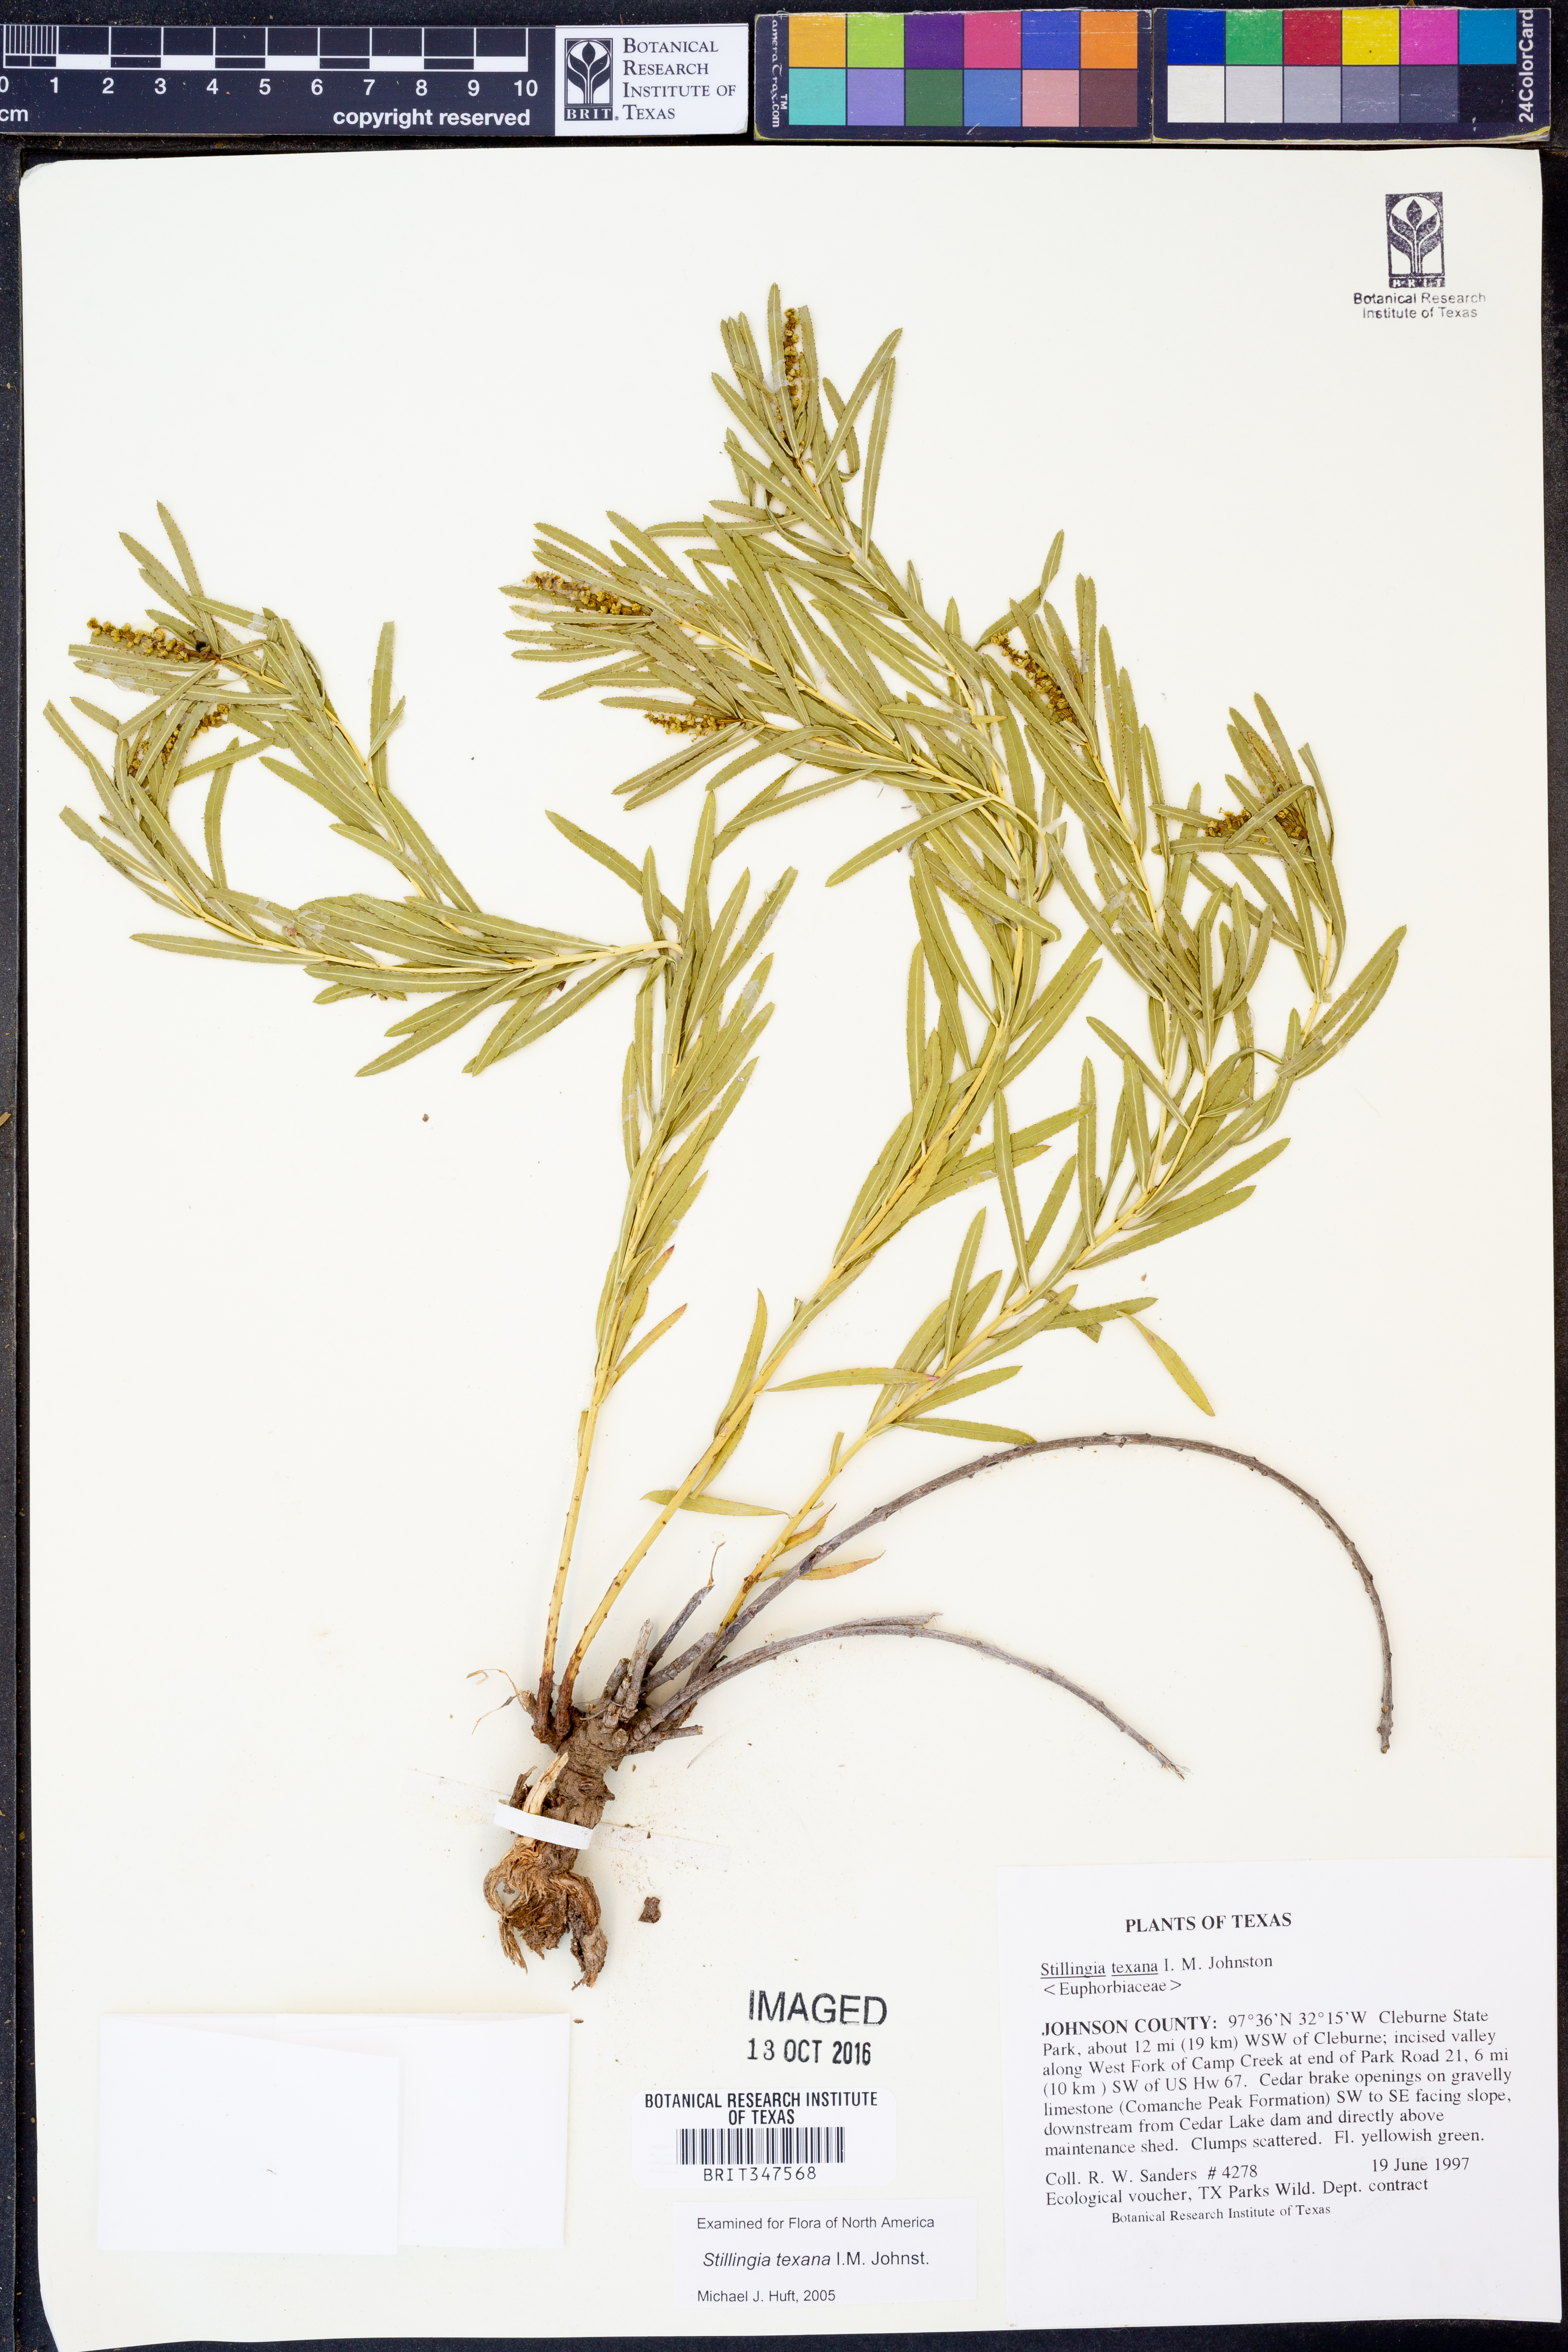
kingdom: Plantae
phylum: Tracheophyta
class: Magnoliopsida
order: Malpighiales
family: Euphorbiaceae
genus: Stillingia
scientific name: Stillingia texana
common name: Texas stillingia
